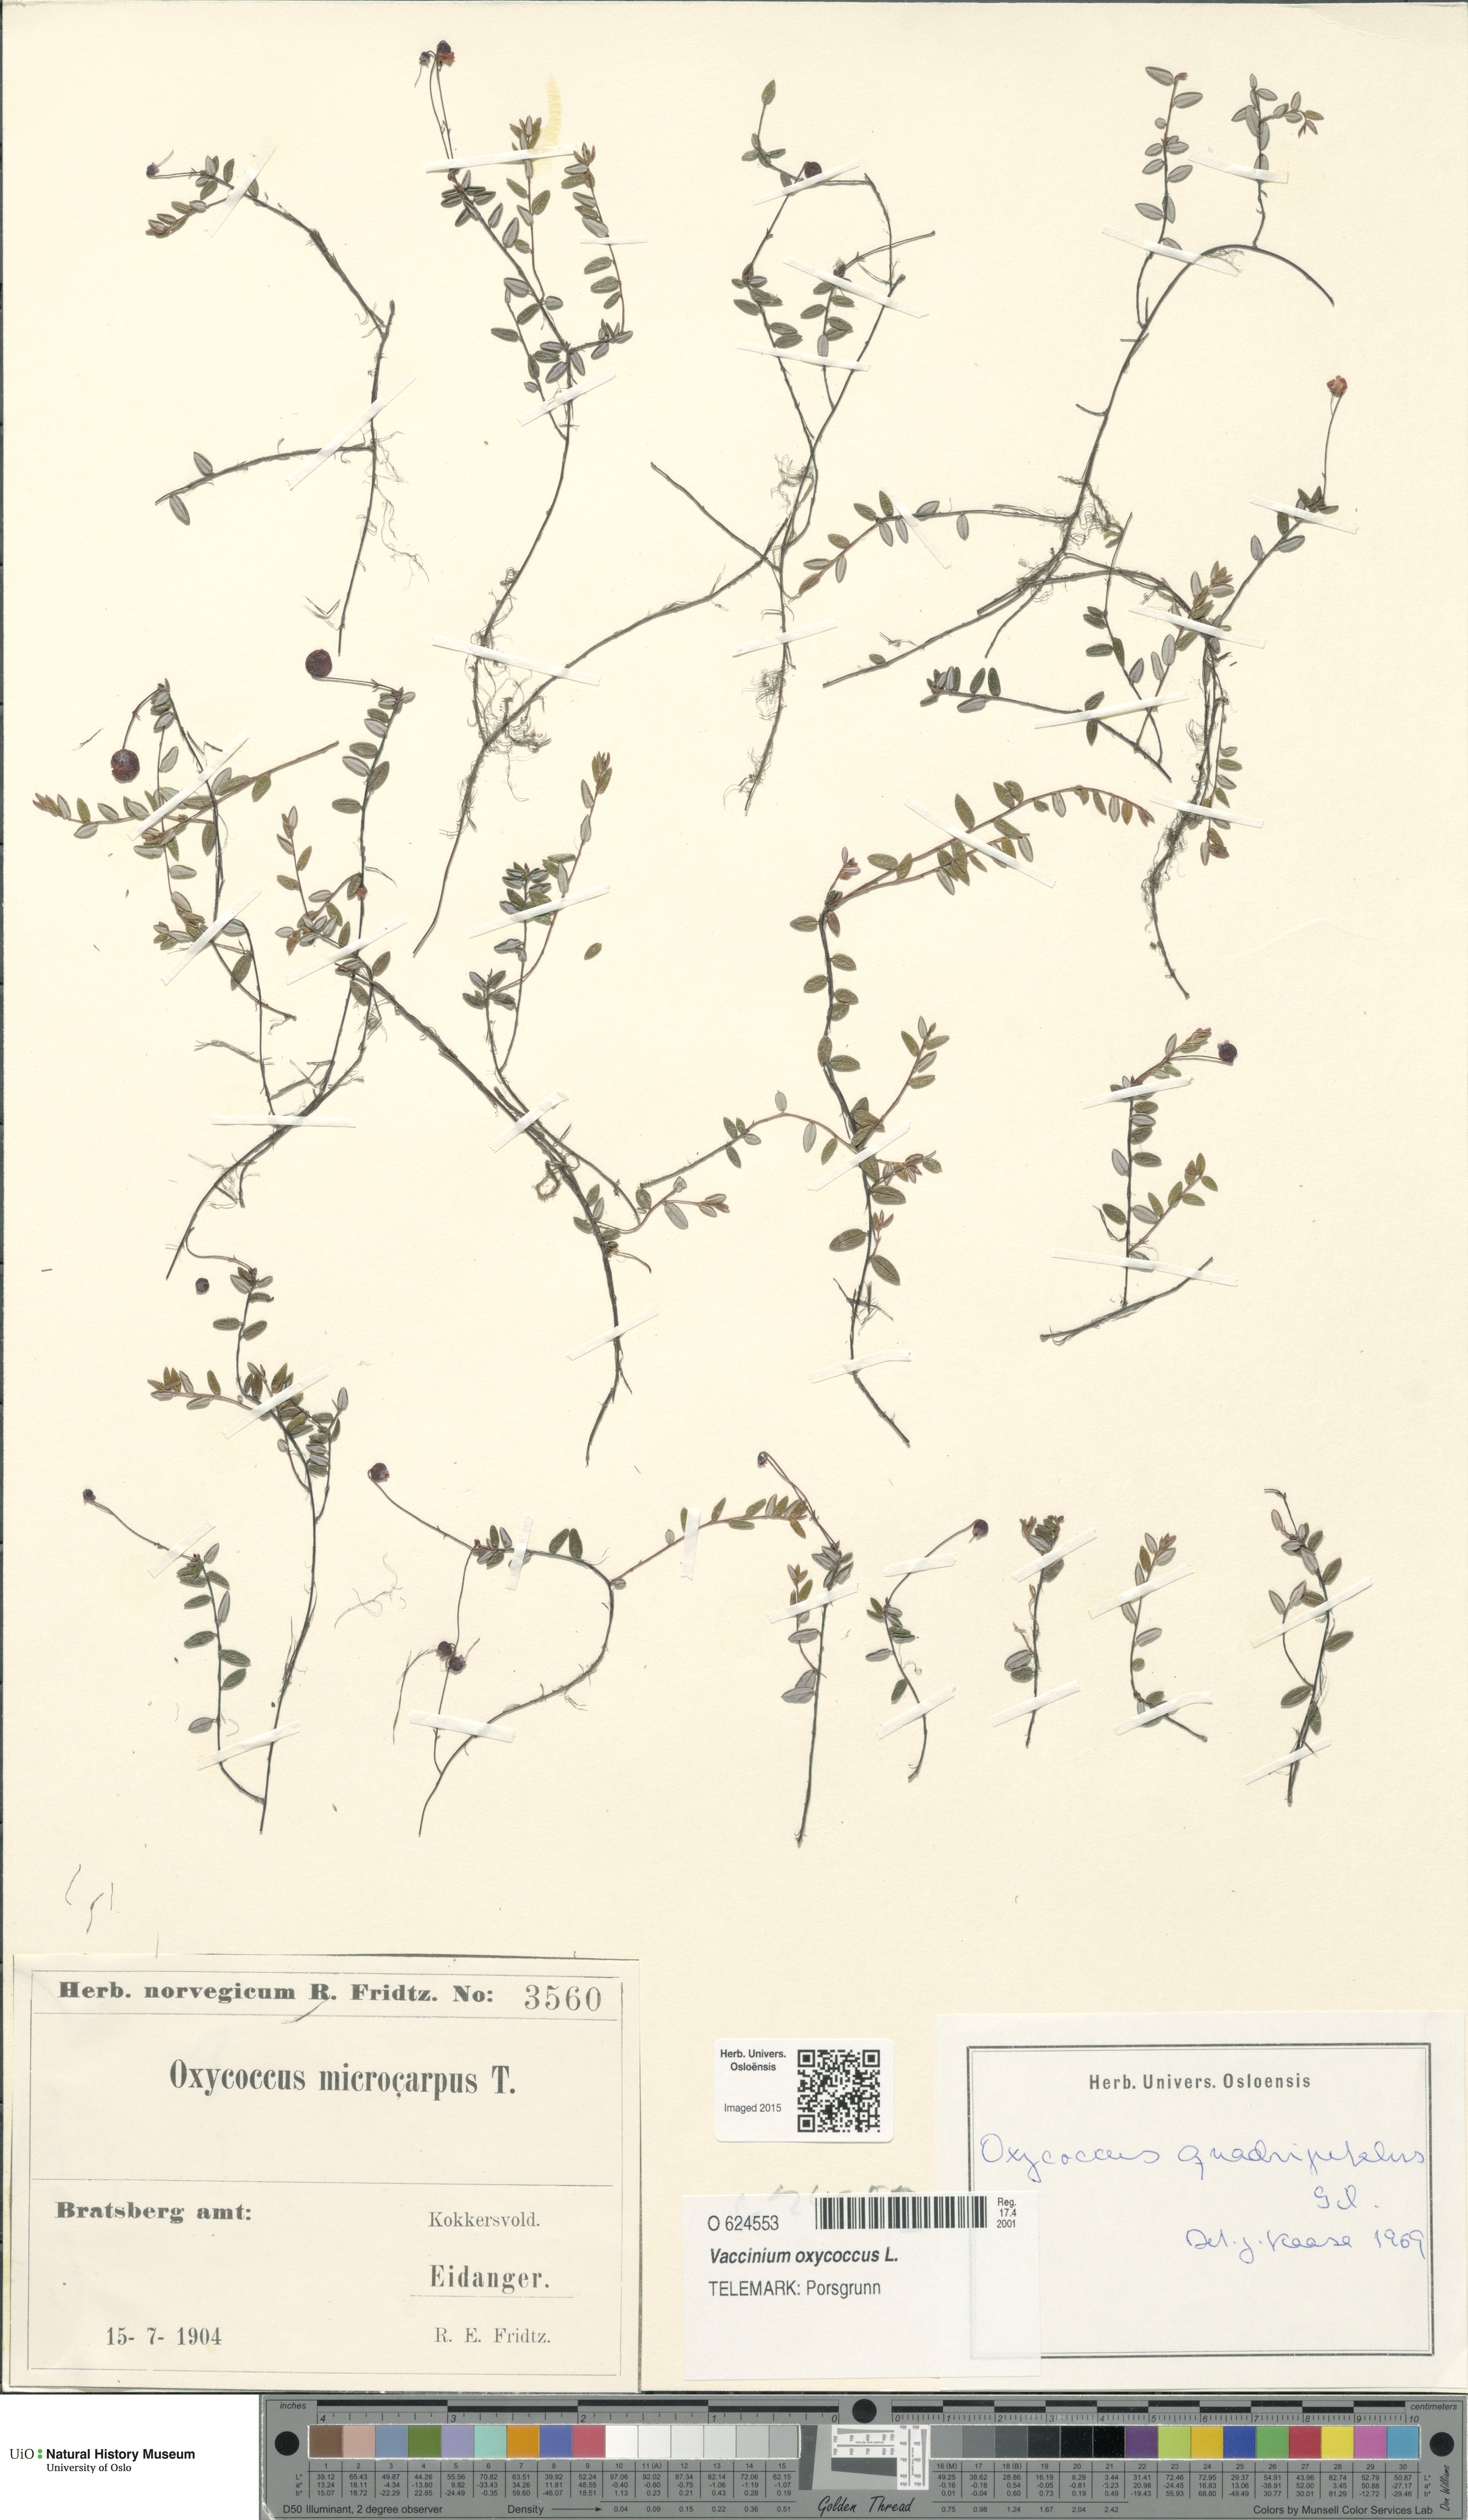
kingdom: Plantae
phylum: Tracheophyta
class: Magnoliopsida
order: Ericales
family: Ericaceae
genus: Vaccinium
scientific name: Vaccinium oxycoccos
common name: Cranberry
